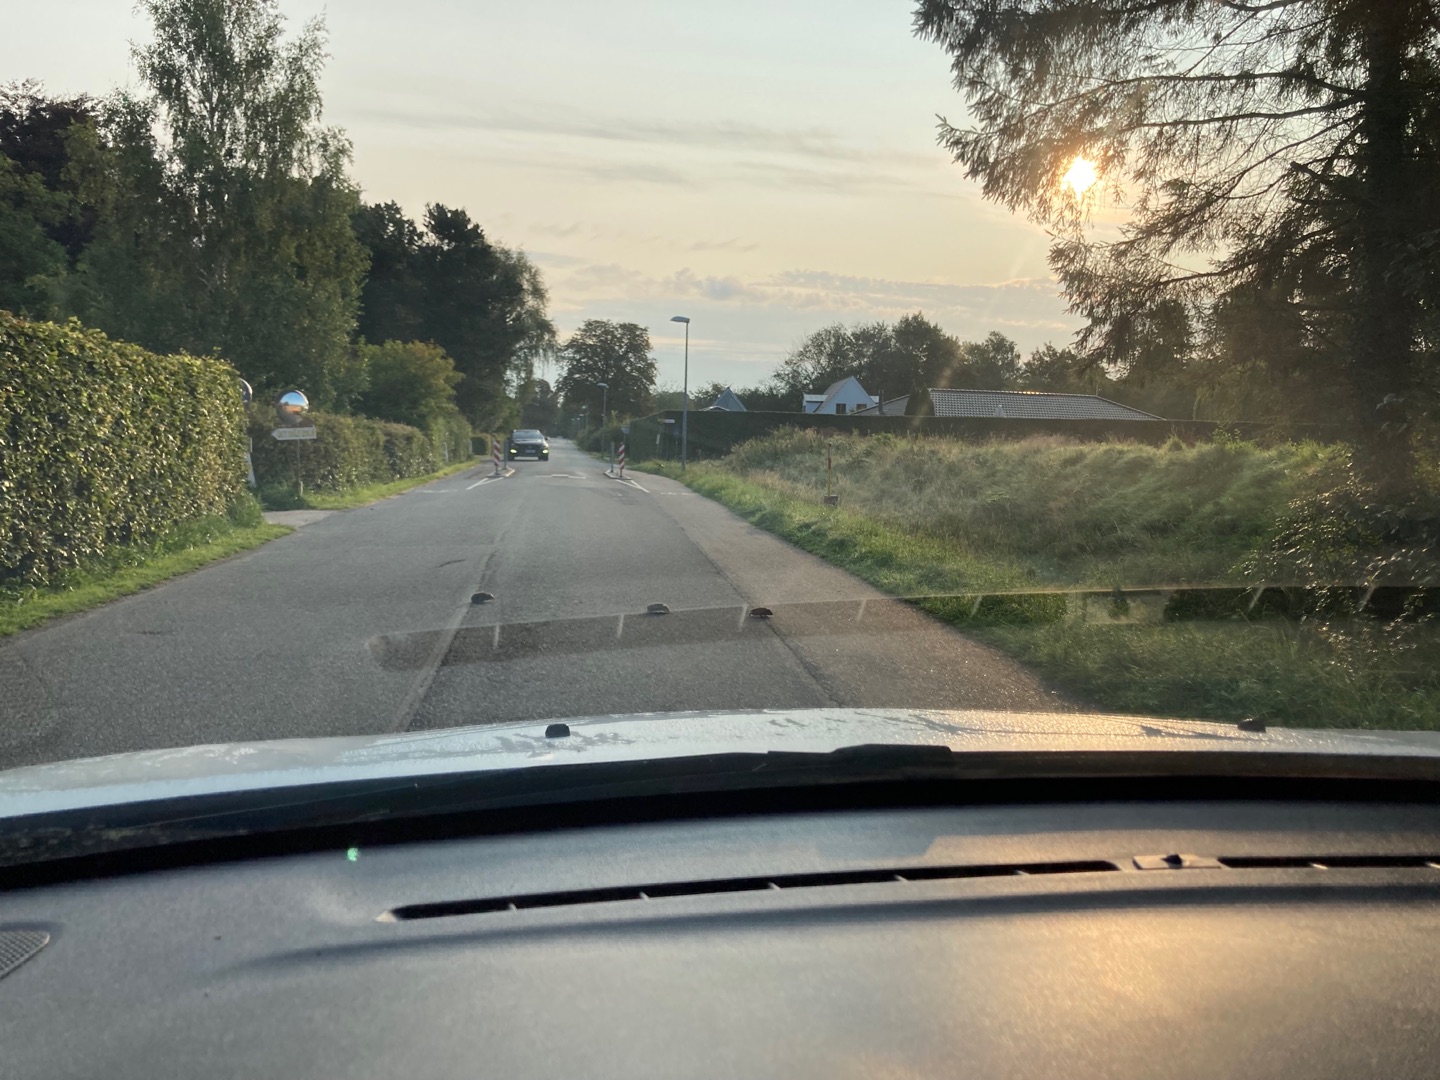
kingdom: Animalia
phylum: Chordata
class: Mammalia
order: Erinaceomorpha
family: Erinaceidae
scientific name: Erinaceidae
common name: Pindsvin
